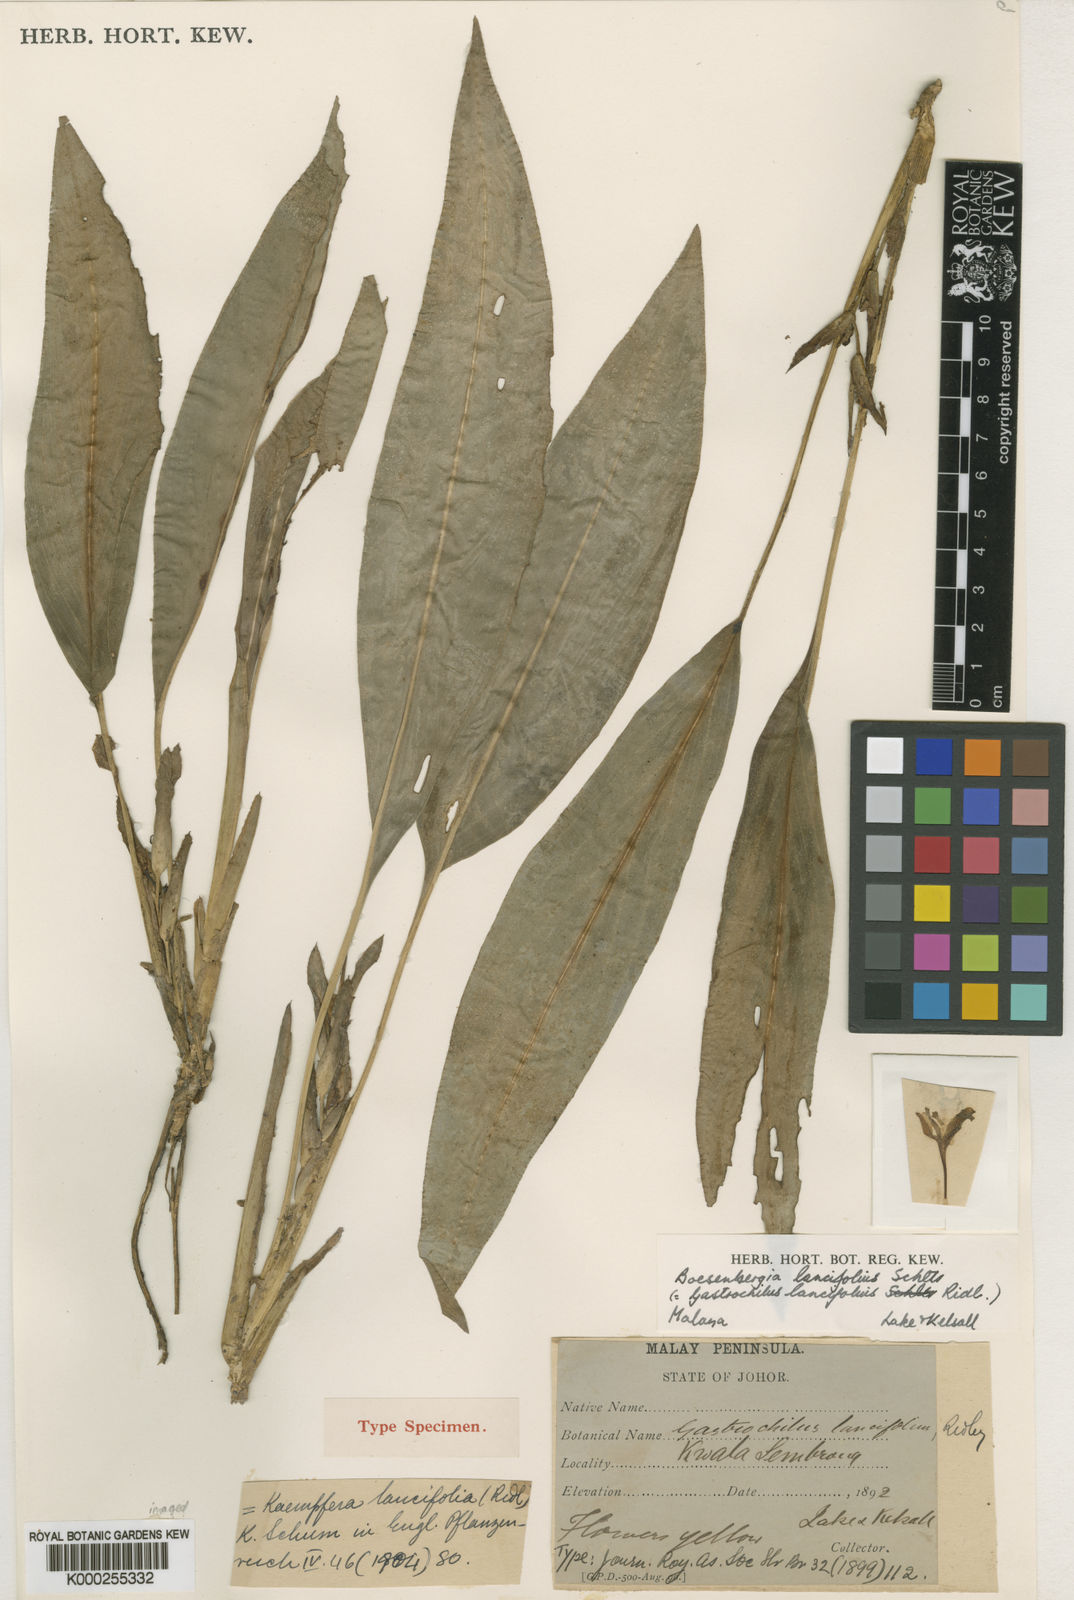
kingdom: Plantae
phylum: Tracheophyta
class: Liliopsida
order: Zingiberales
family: Zingiberaceae
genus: Scaphochlamys
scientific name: Scaphochlamys malaccana
